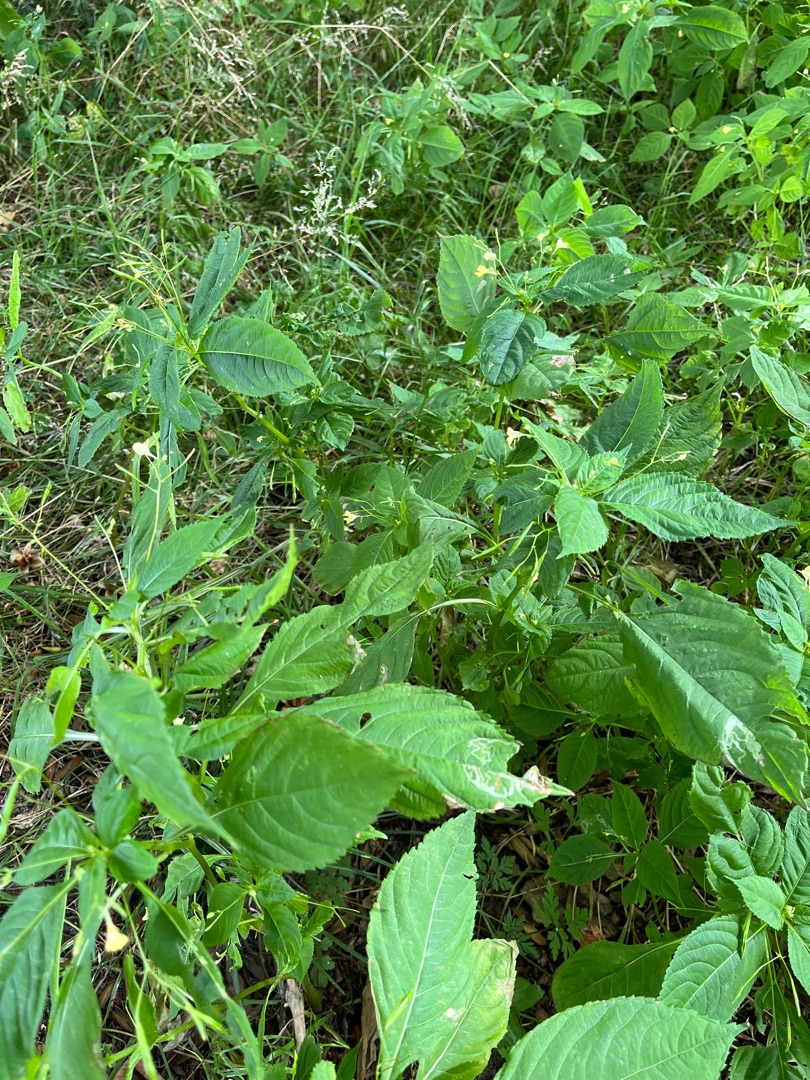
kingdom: Plantae
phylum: Tracheophyta
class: Magnoliopsida
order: Ericales
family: Balsaminaceae
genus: Impatiens
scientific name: Impatiens parviflora
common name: Småblomstret balsamin
